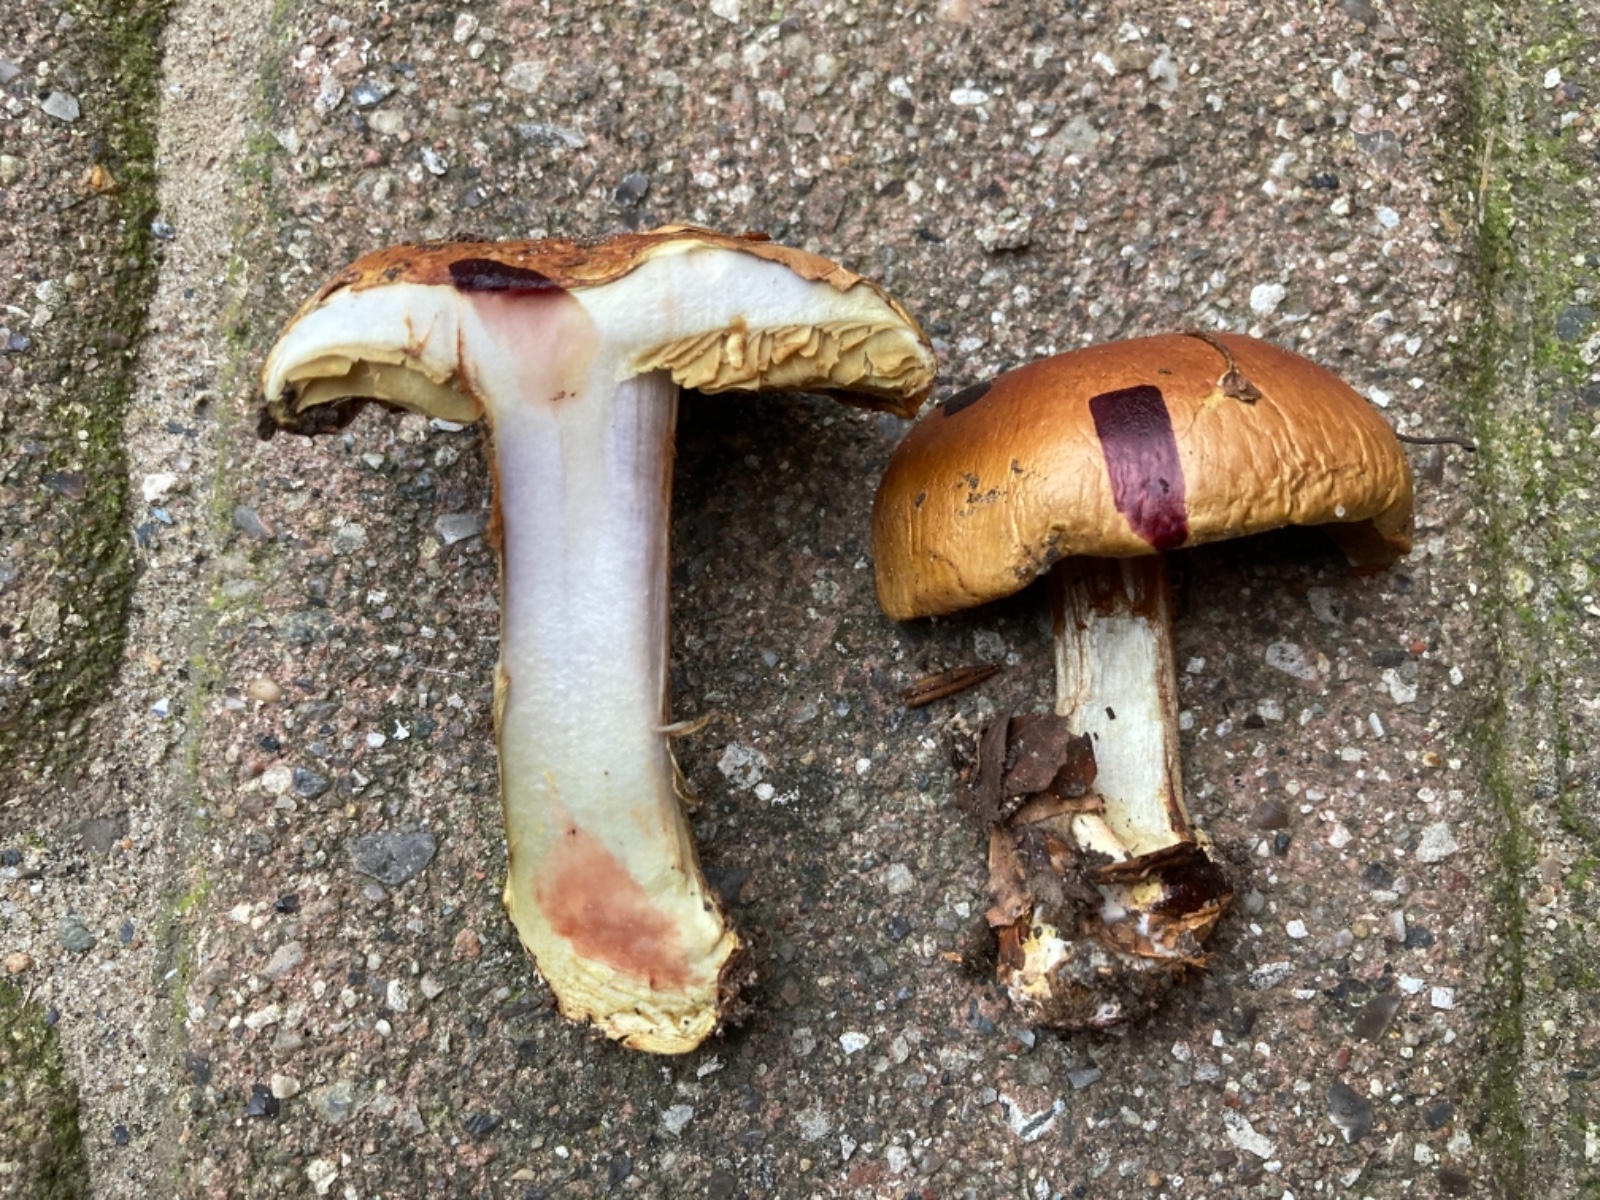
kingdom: Fungi
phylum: Basidiomycota
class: Agaricomycetes
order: Agaricales
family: Cortinariaceae
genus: Cortinarius
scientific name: Cortinarius bergeronii
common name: prægtig slørhat
